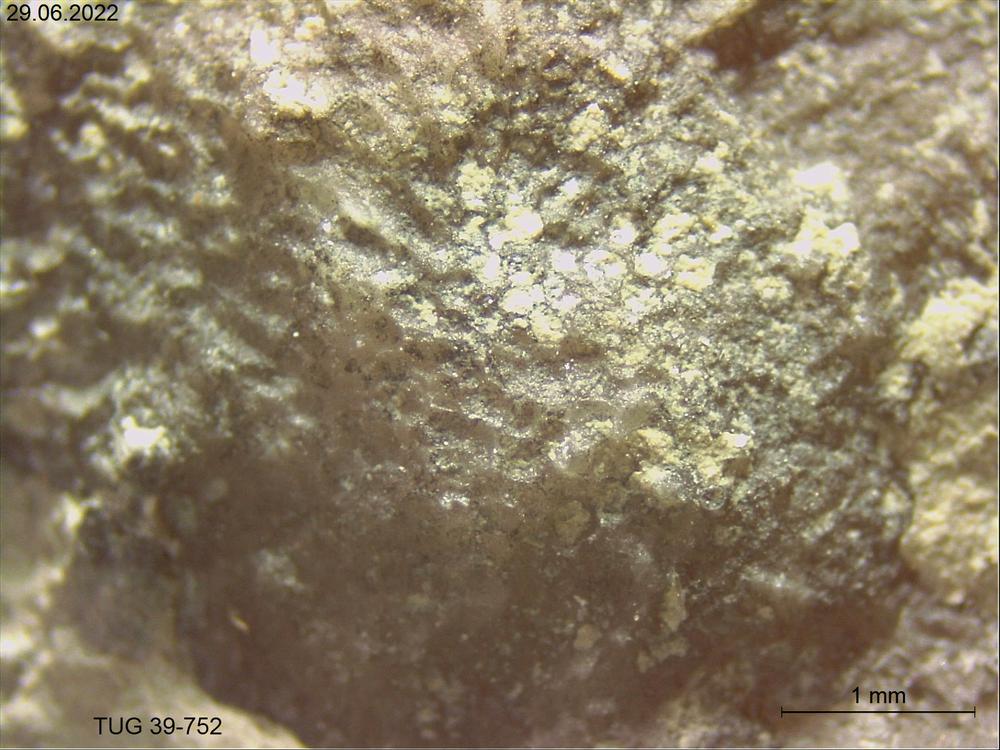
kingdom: Animalia
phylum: Bryozoa
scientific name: Bryozoa
